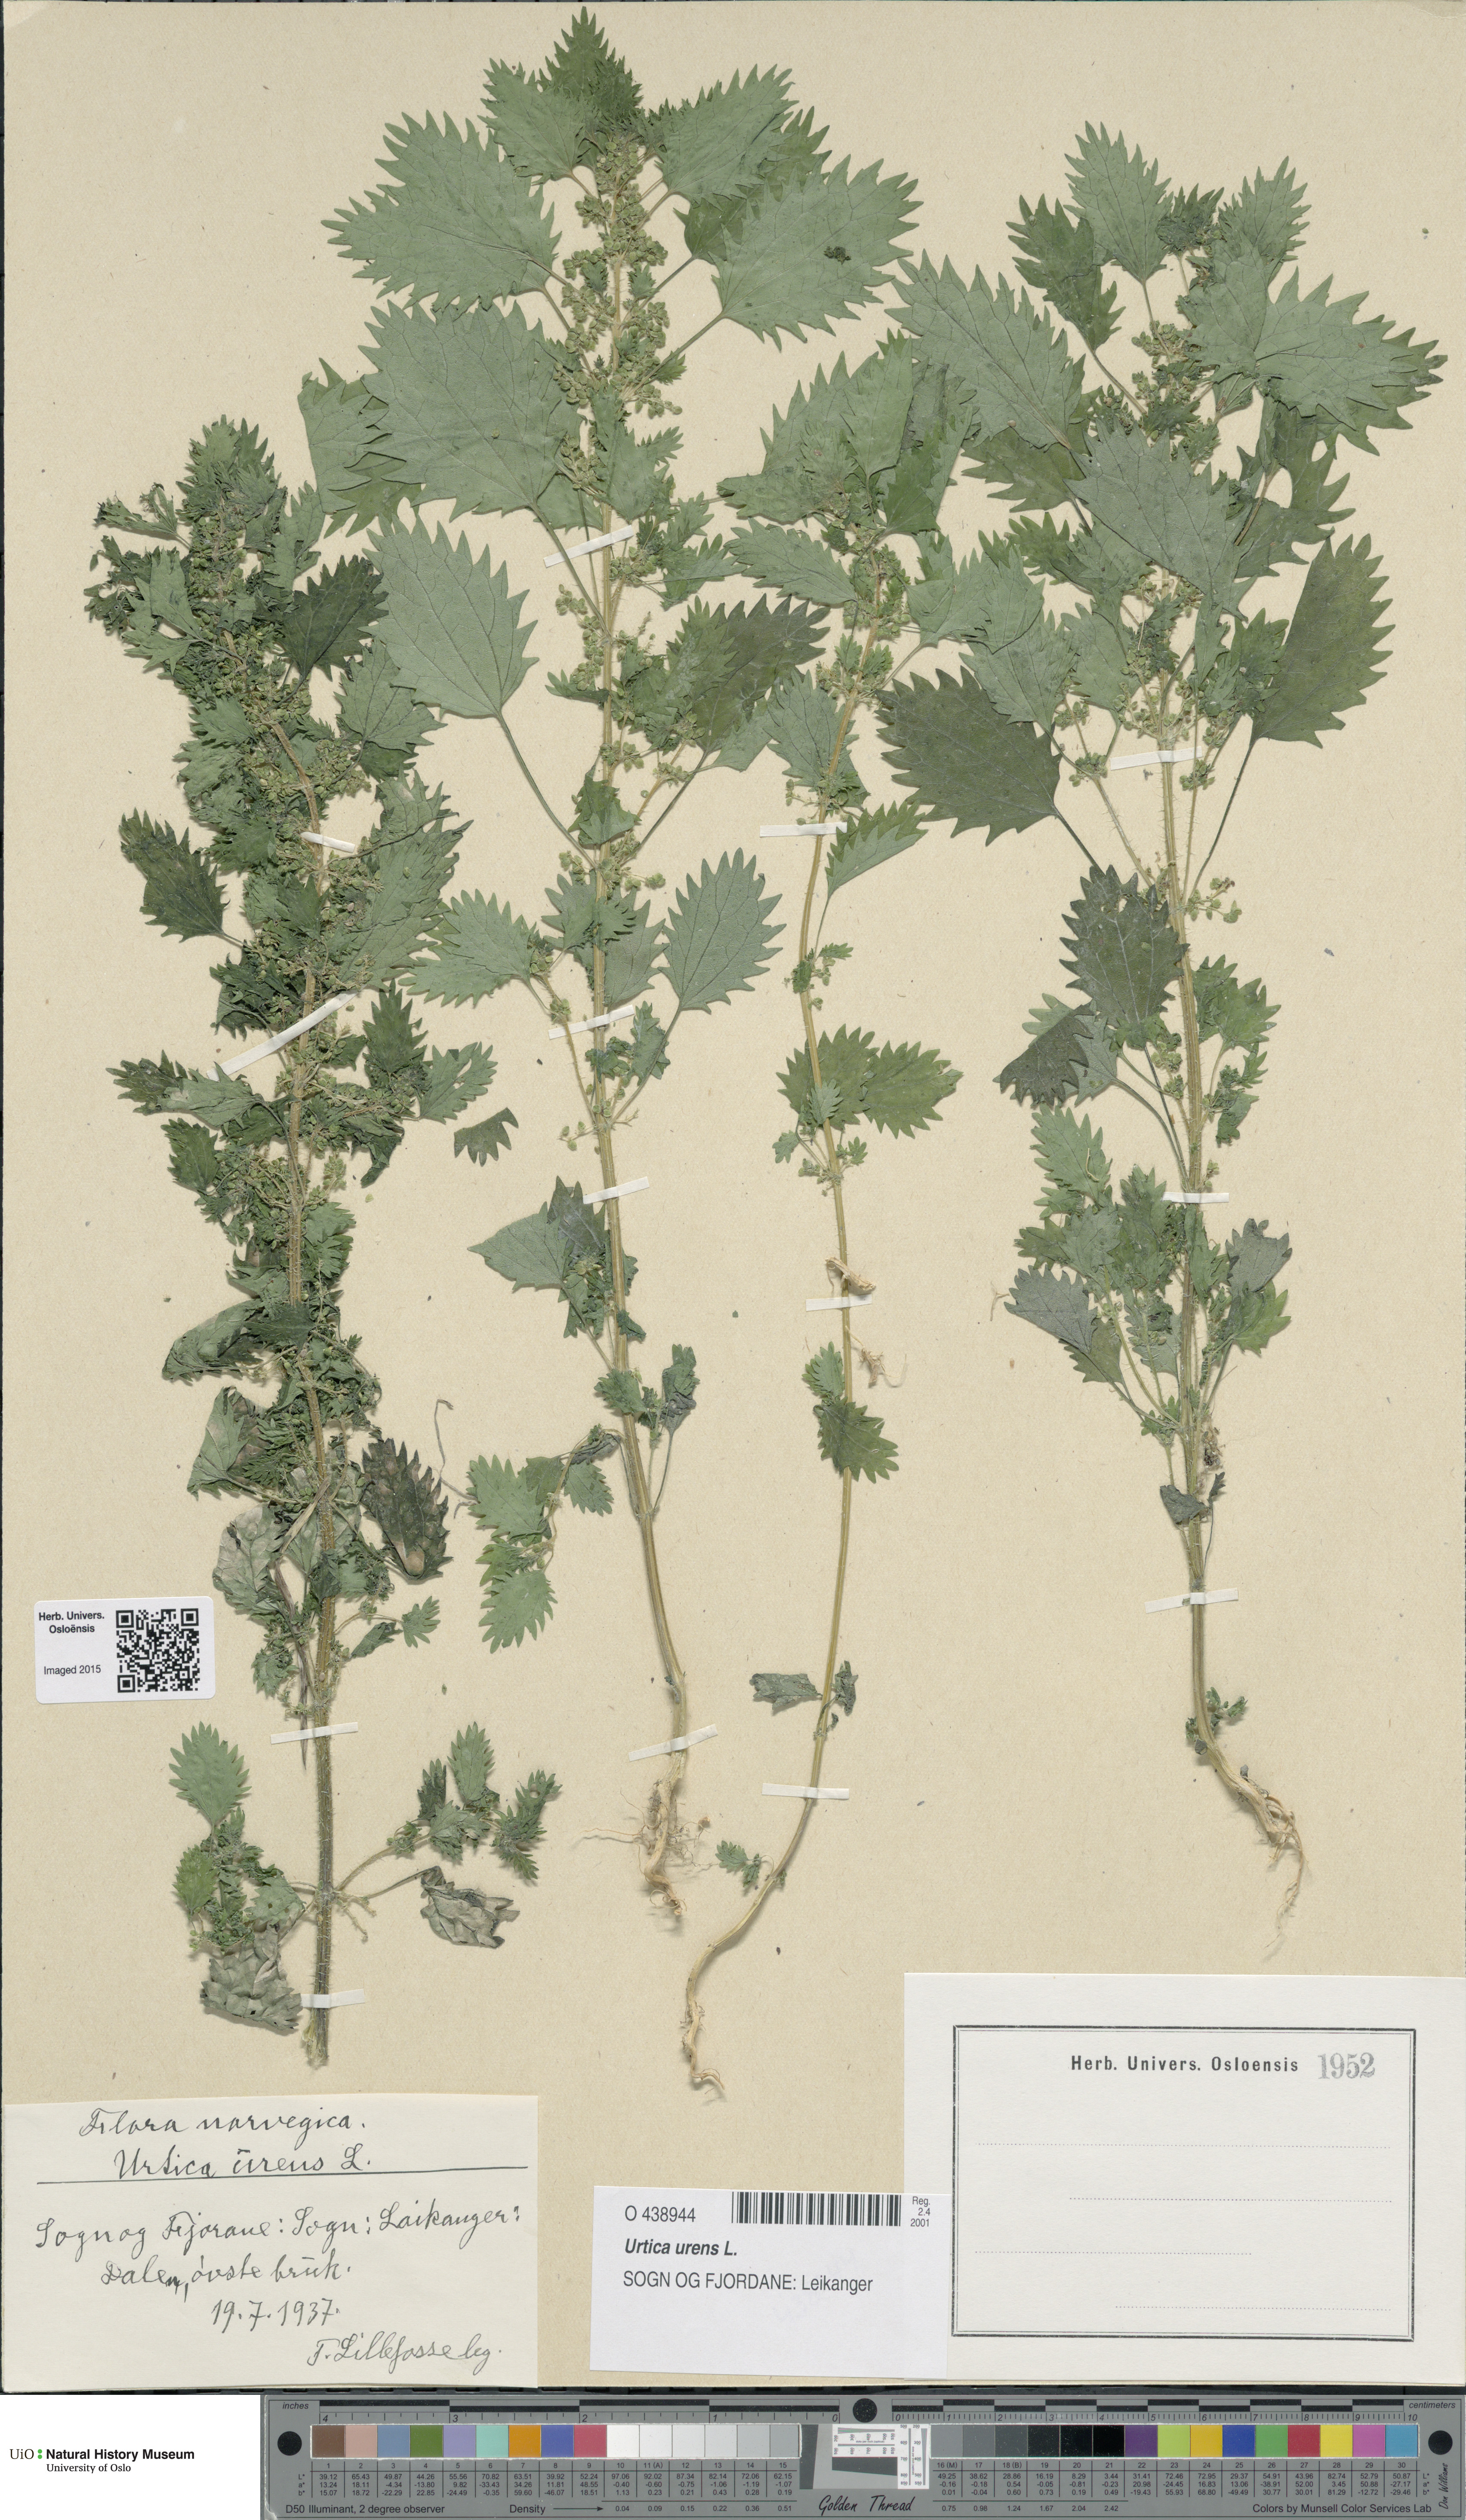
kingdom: Plantae
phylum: Tracheophyta
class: Magnoliopsida
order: Rosales
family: Urticaceae
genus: Urtica
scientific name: Urtica urens
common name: Dwarf nettle
